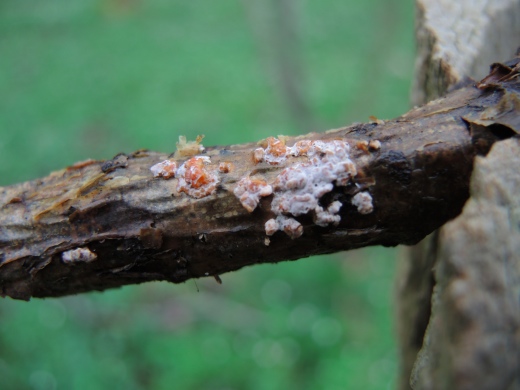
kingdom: Fungi
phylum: Basidiomycota
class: Agaricomycetes
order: Russulales
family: Peniophoraceae
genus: Peniophora
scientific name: Peniophora polygonia
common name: polygon-voksskind
